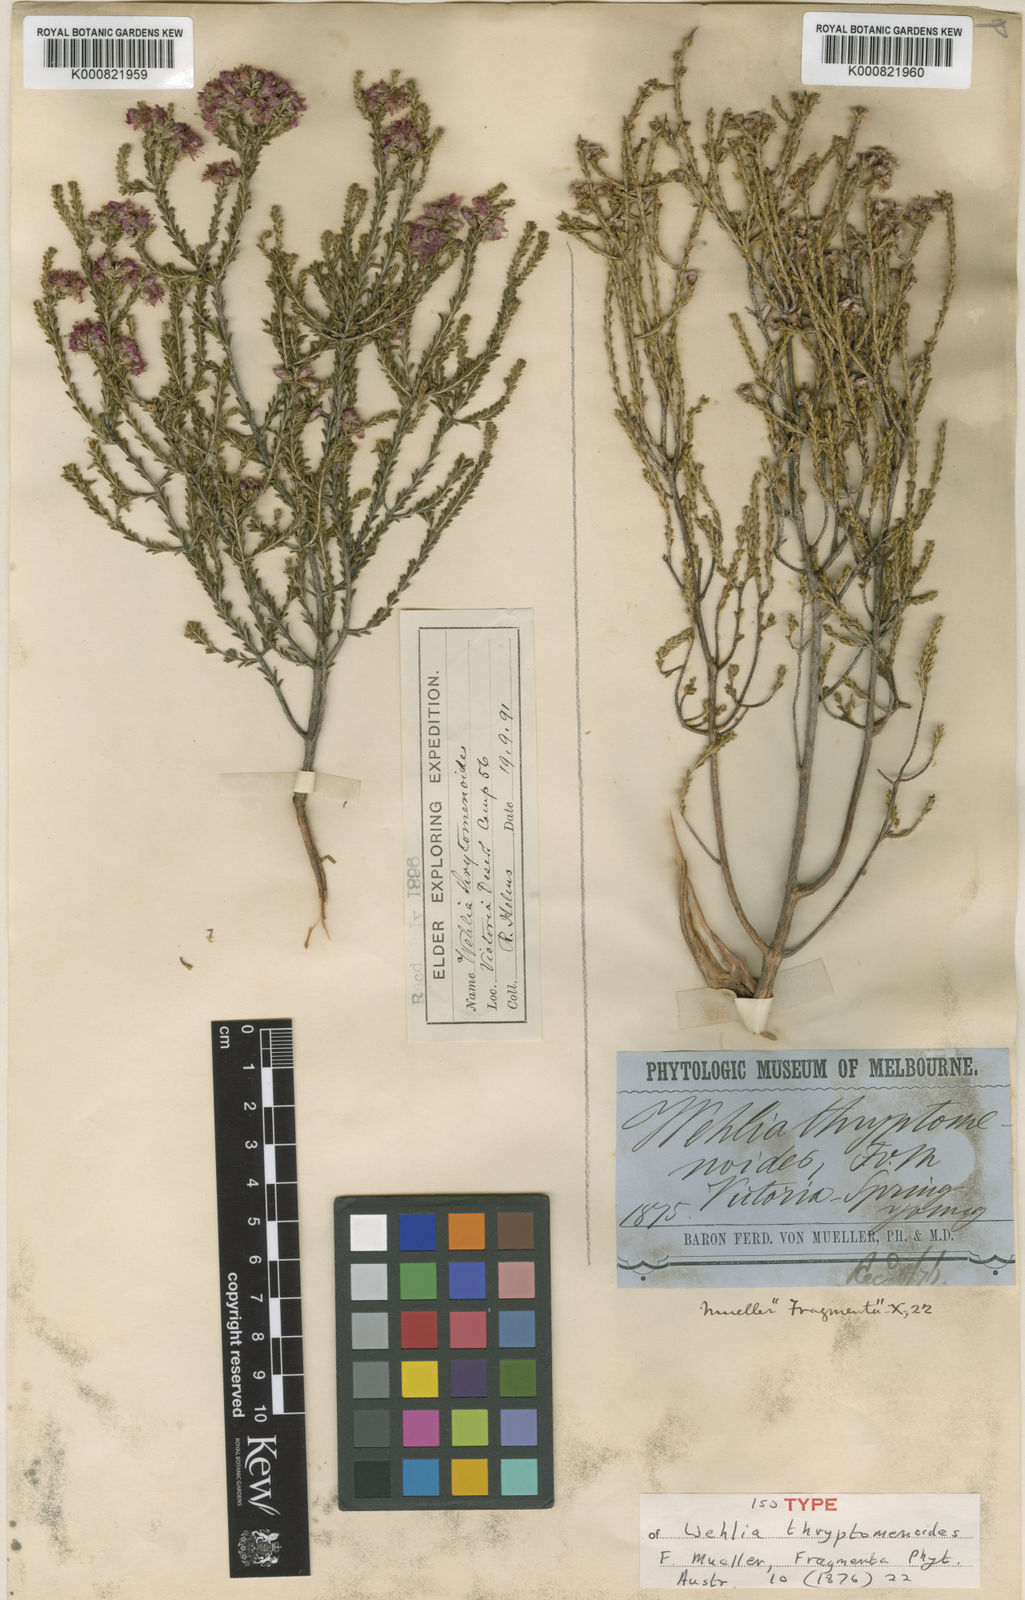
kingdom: Plantae
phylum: Tracheophyta
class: Magnoliopsida
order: Myrtales
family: Myrtaceae
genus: Homalocalyx
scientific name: Homalocalyx thryptomenoides
